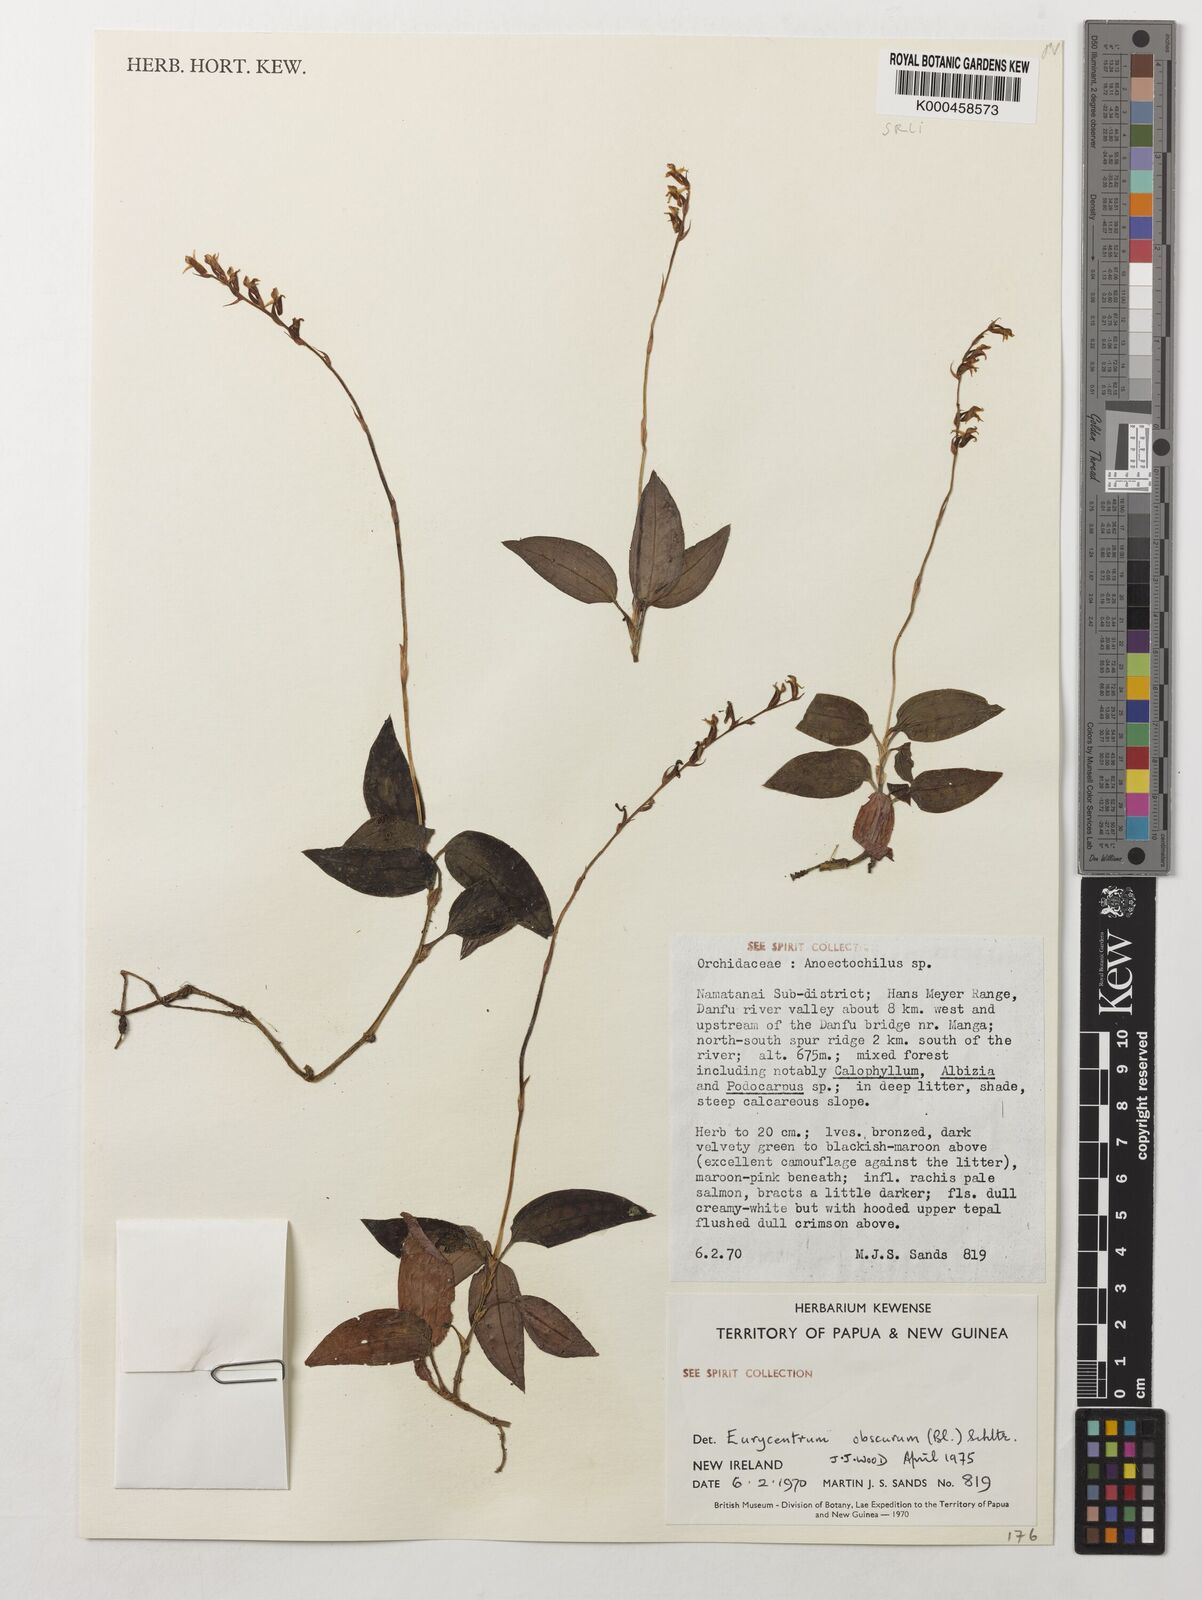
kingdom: Plantae
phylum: Tracheophyta
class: Liliopsida
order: Asparagales
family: Orchidaceae
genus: Eurycentrum
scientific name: Eurycentrum obscurum
